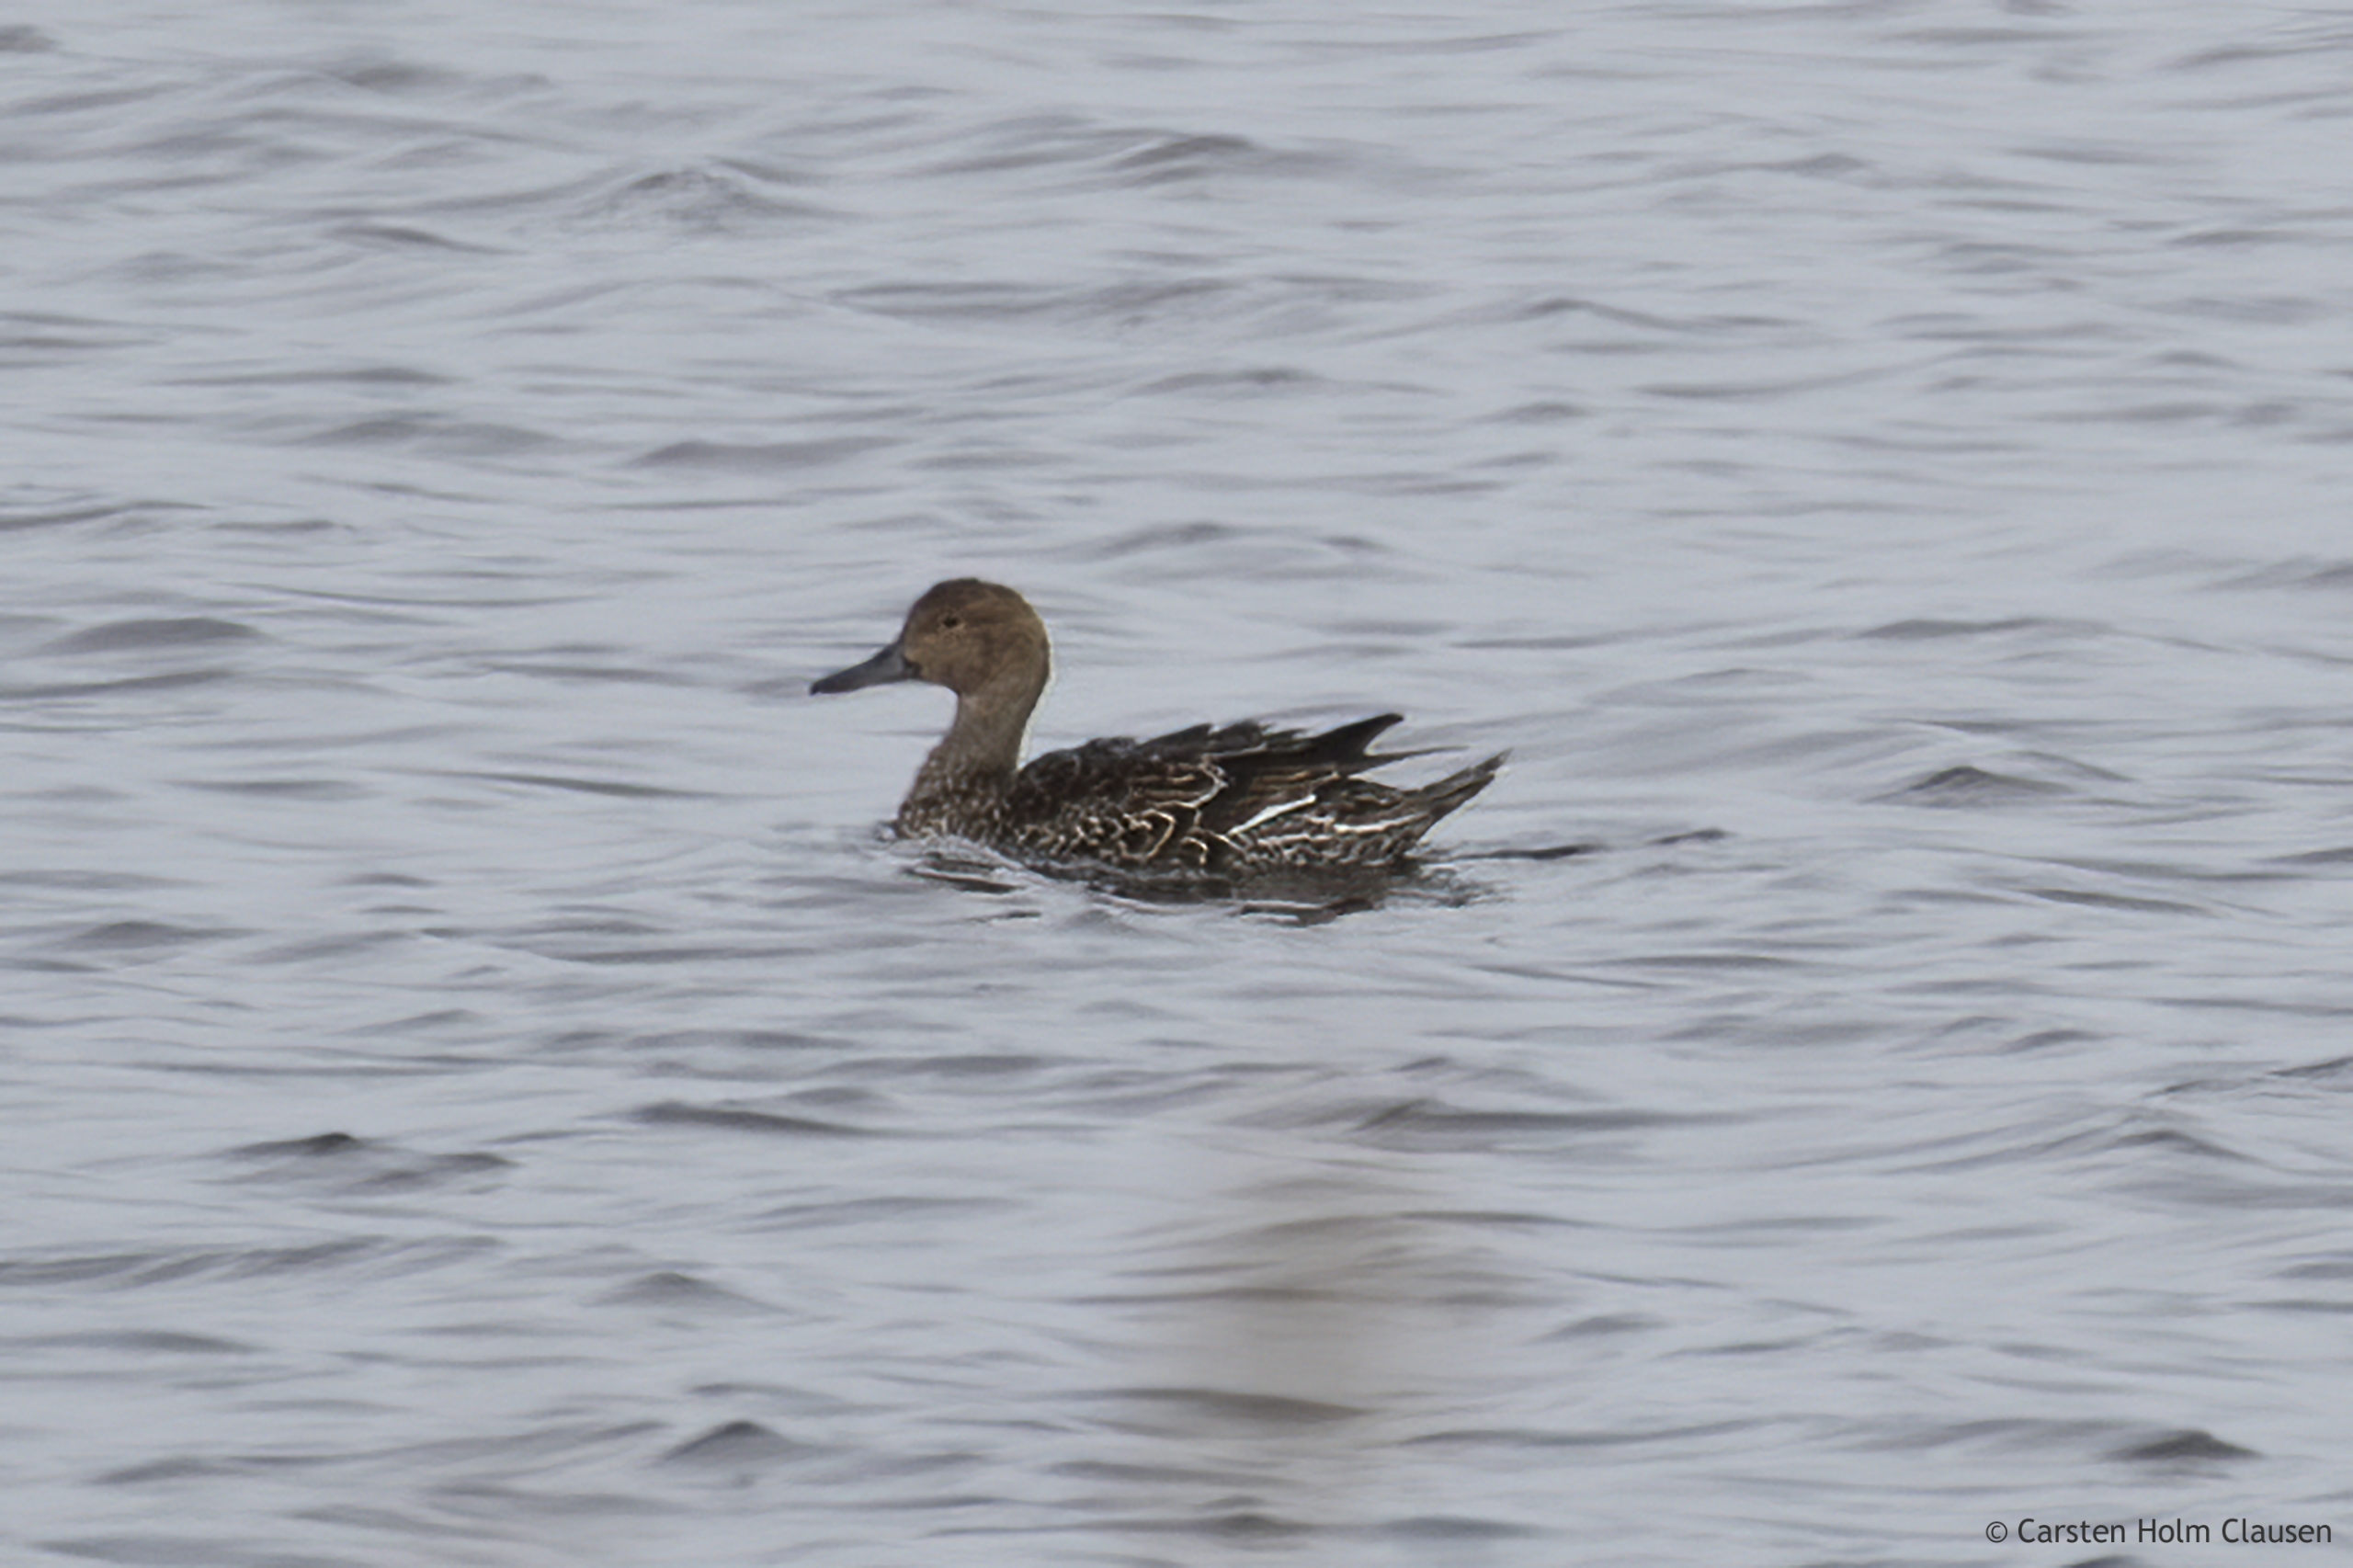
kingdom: Animalia
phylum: Chordata
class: Aves
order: Anseriformes
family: Anatidae
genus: Anas
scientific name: Anas acuta
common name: Spidsand
